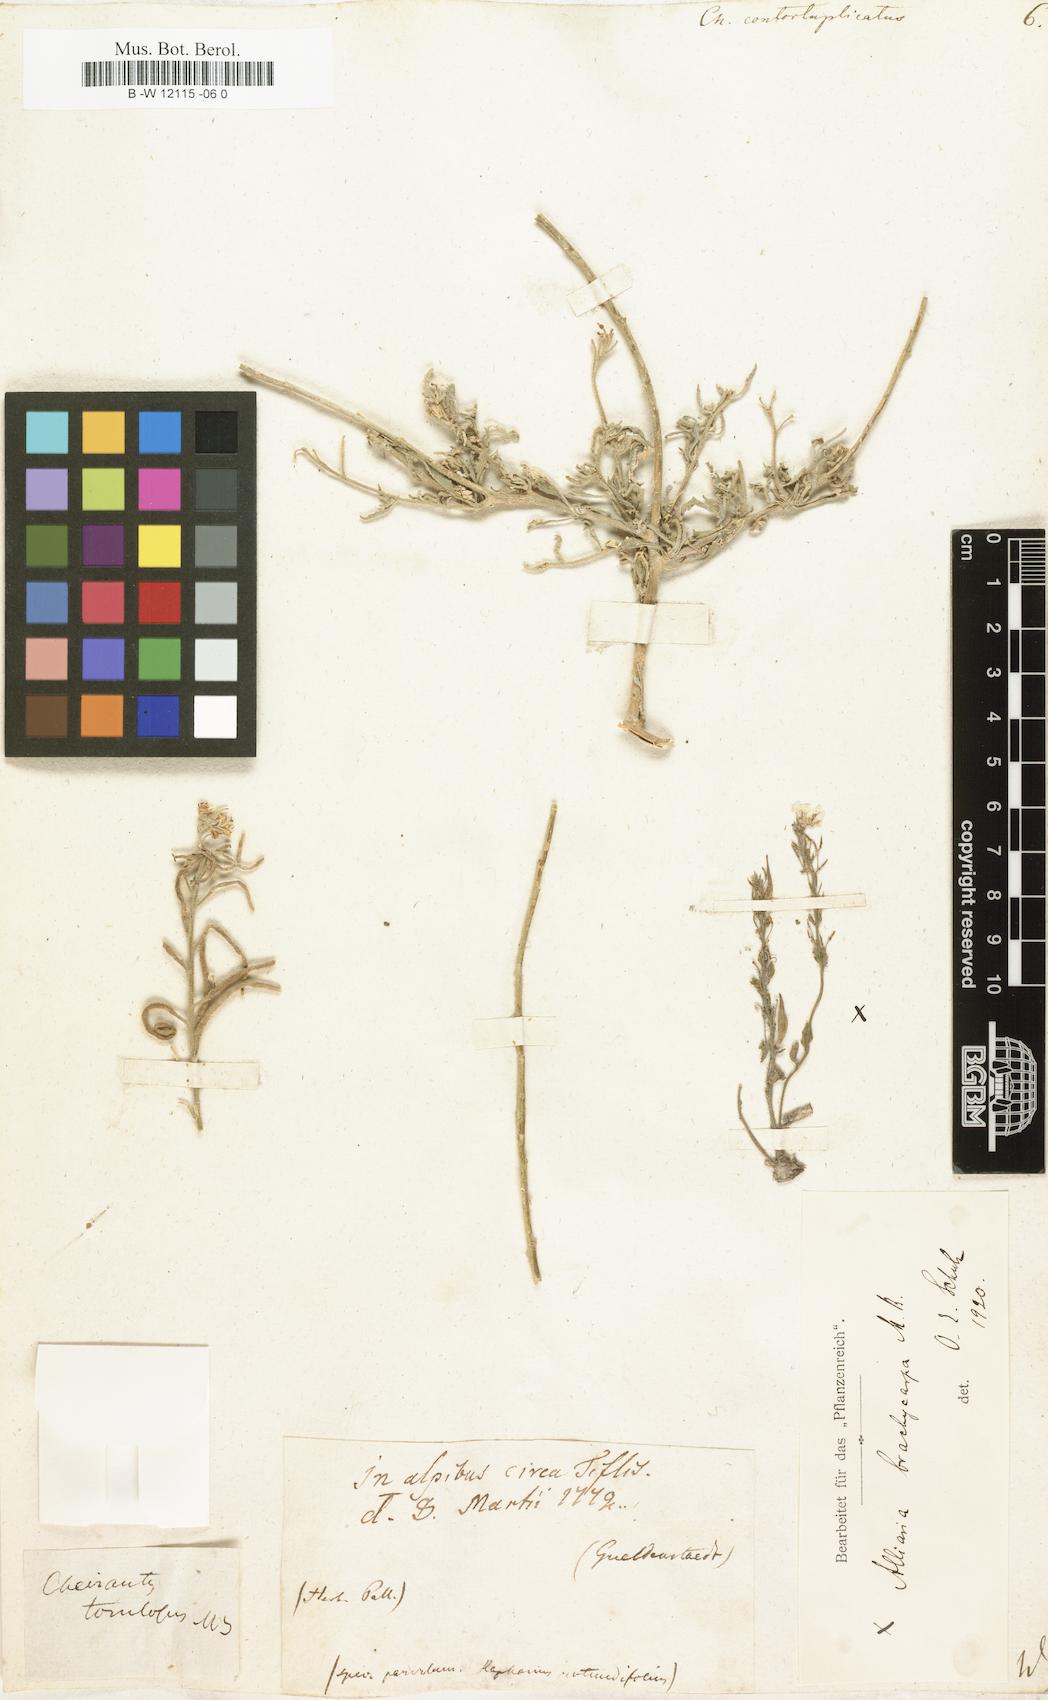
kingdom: Plantae
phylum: Tracheophyta
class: Magnoliopsida
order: Brassicales
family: Brassicaceae
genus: Neotorularia
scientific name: Neotorularia contortuplicata
